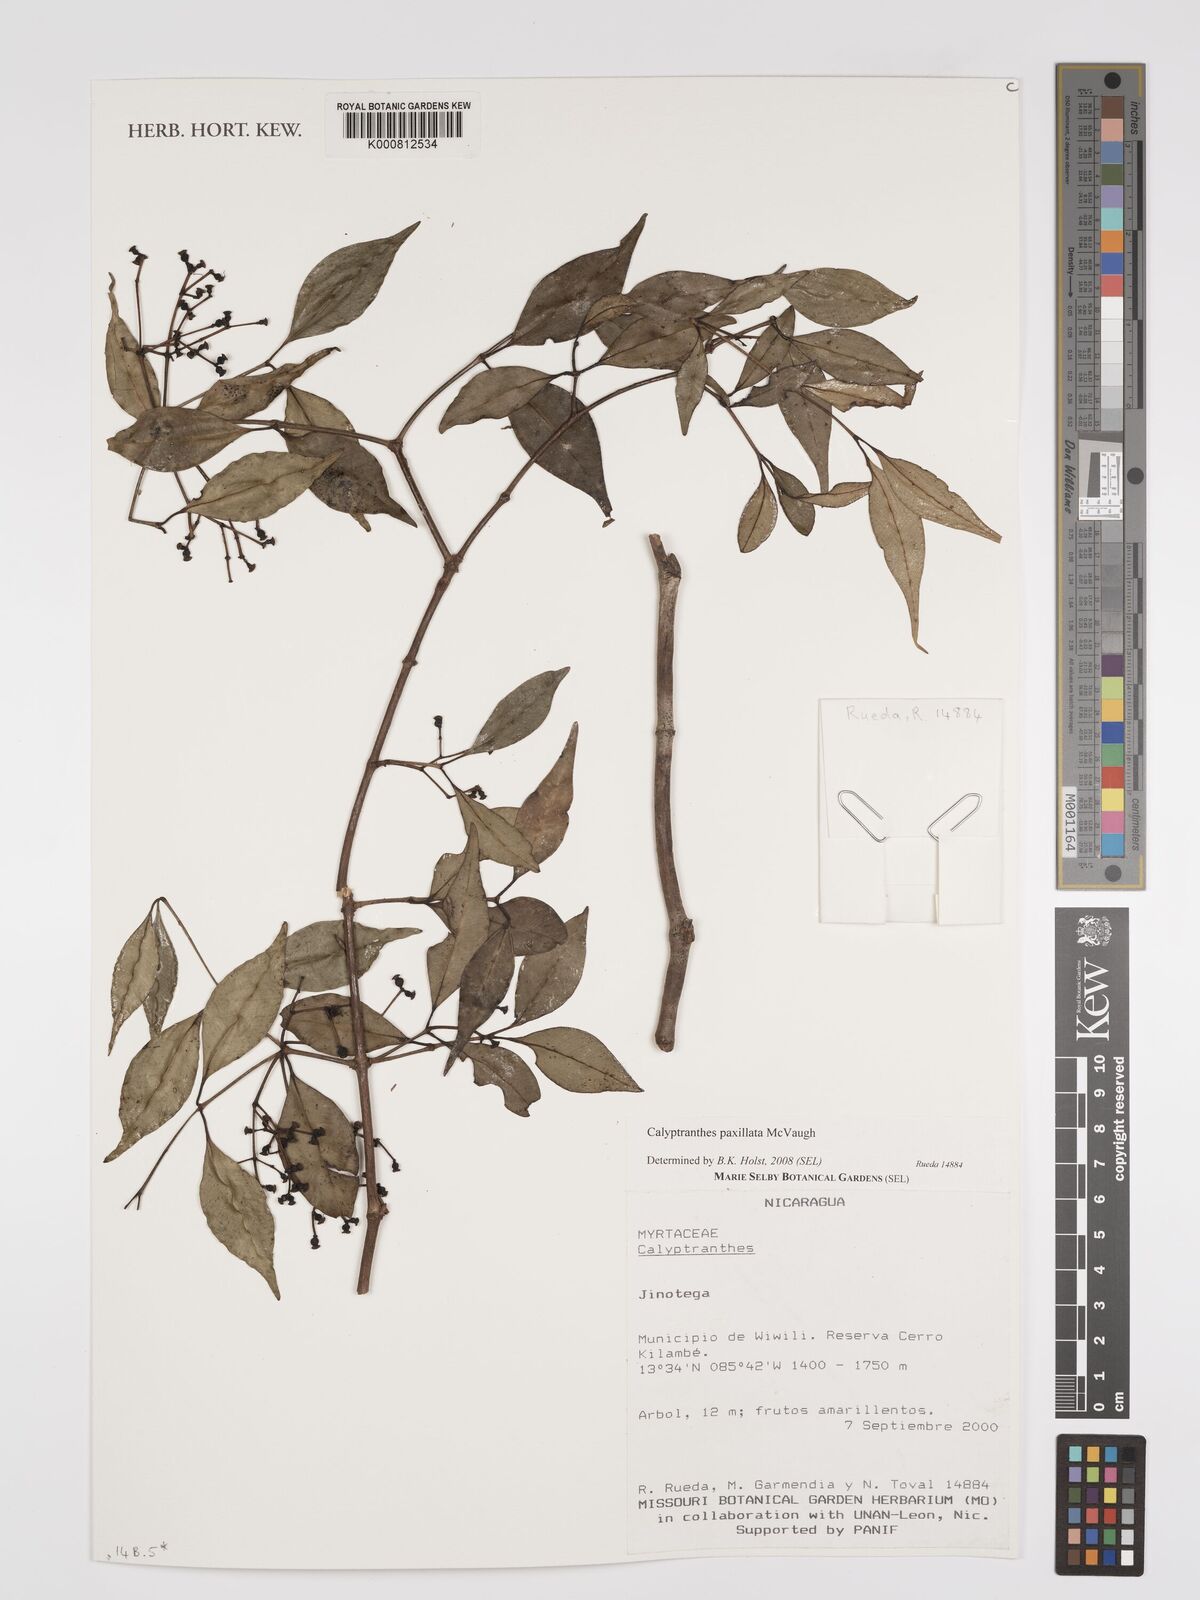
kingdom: Plantae
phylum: Tracheophyta
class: Magnoliopsida
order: Myrtales
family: Myrtaceae
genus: Myrcia
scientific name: Myrcia paxillata
